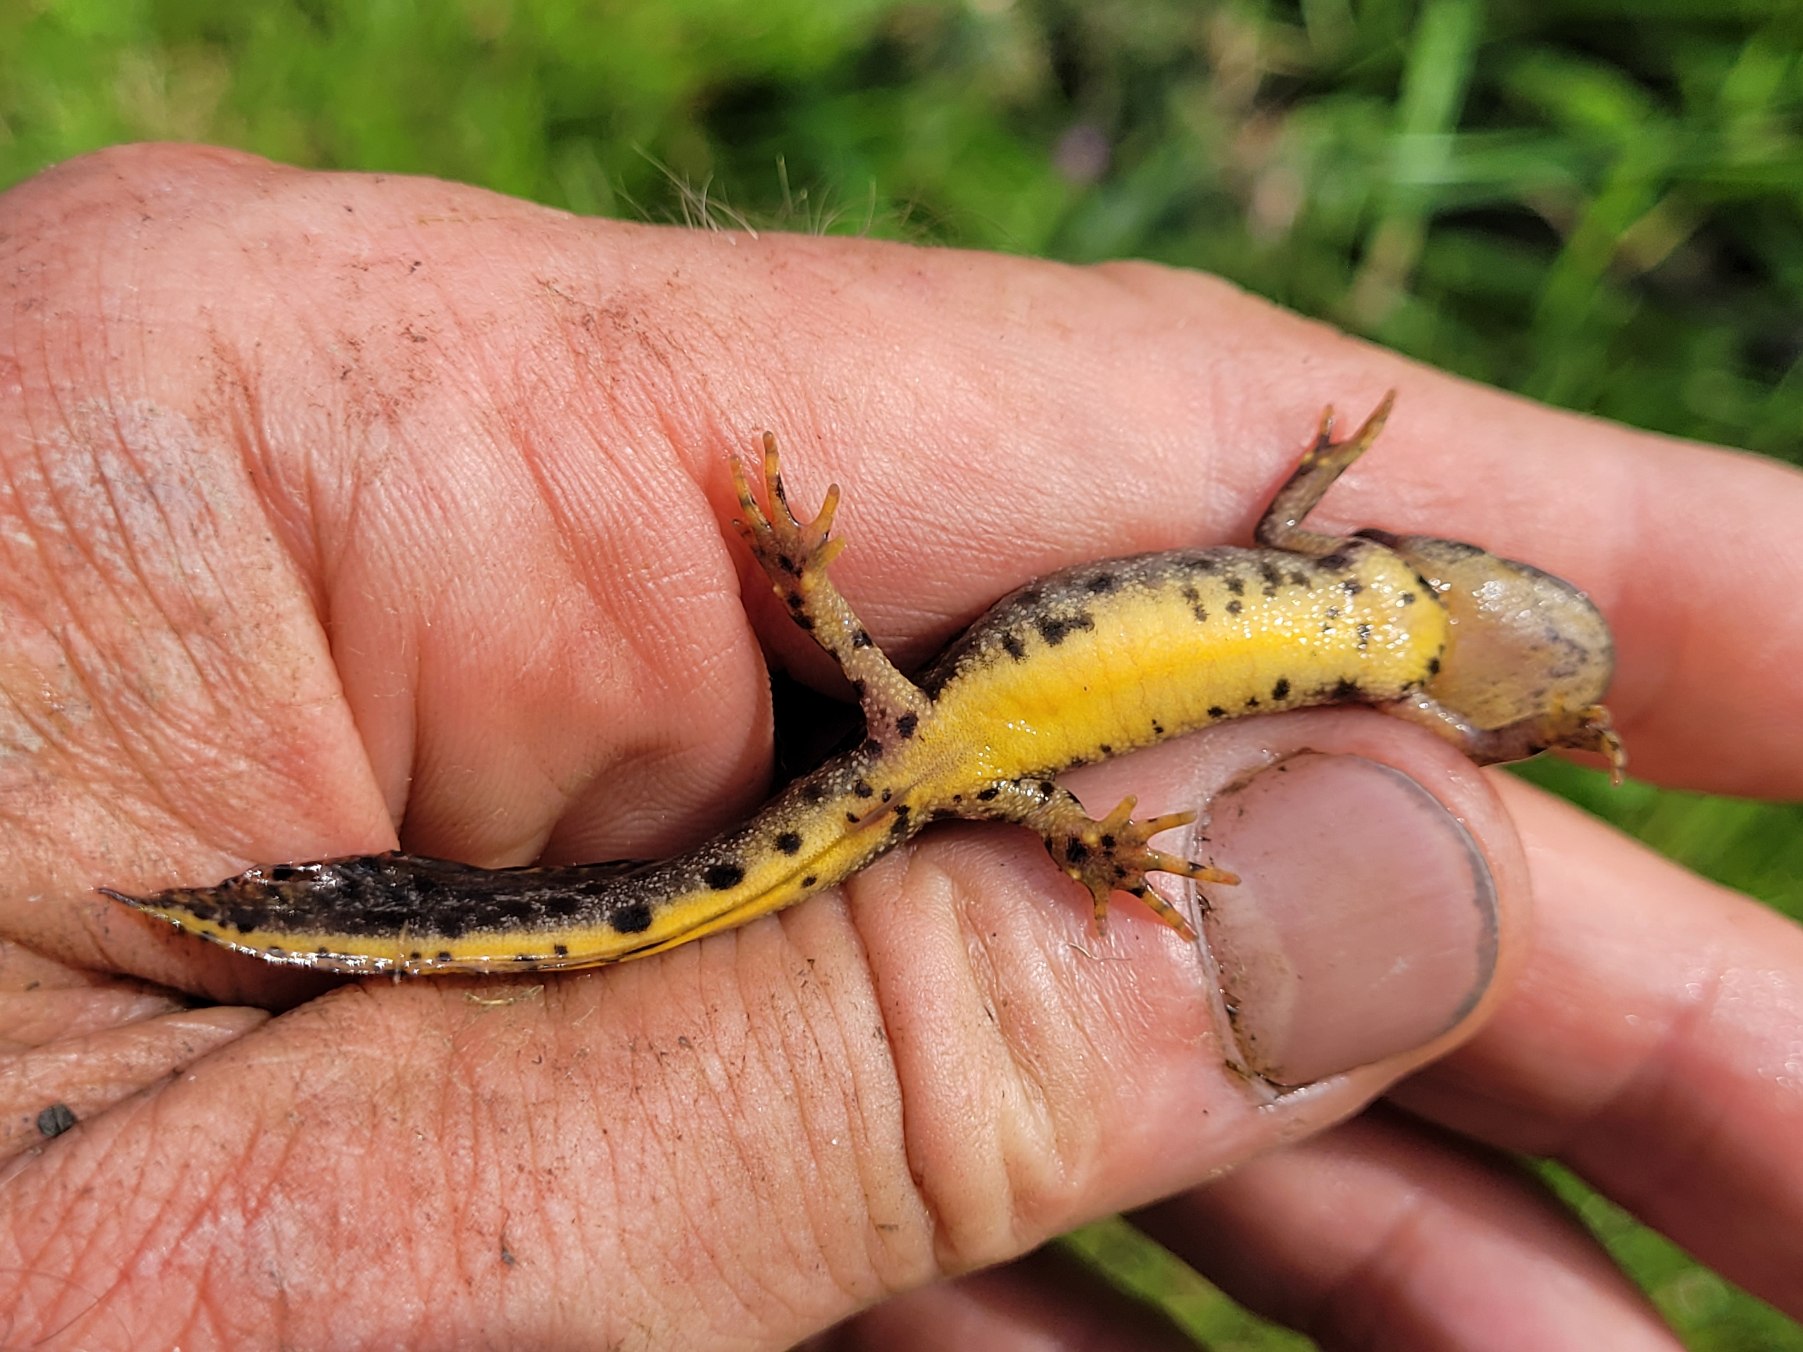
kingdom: Animalia
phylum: Chordata
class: Amphibia
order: Caudata
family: Salamandridae
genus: Triturus
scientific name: Triturus cristatus
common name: Stor vandsalamander
